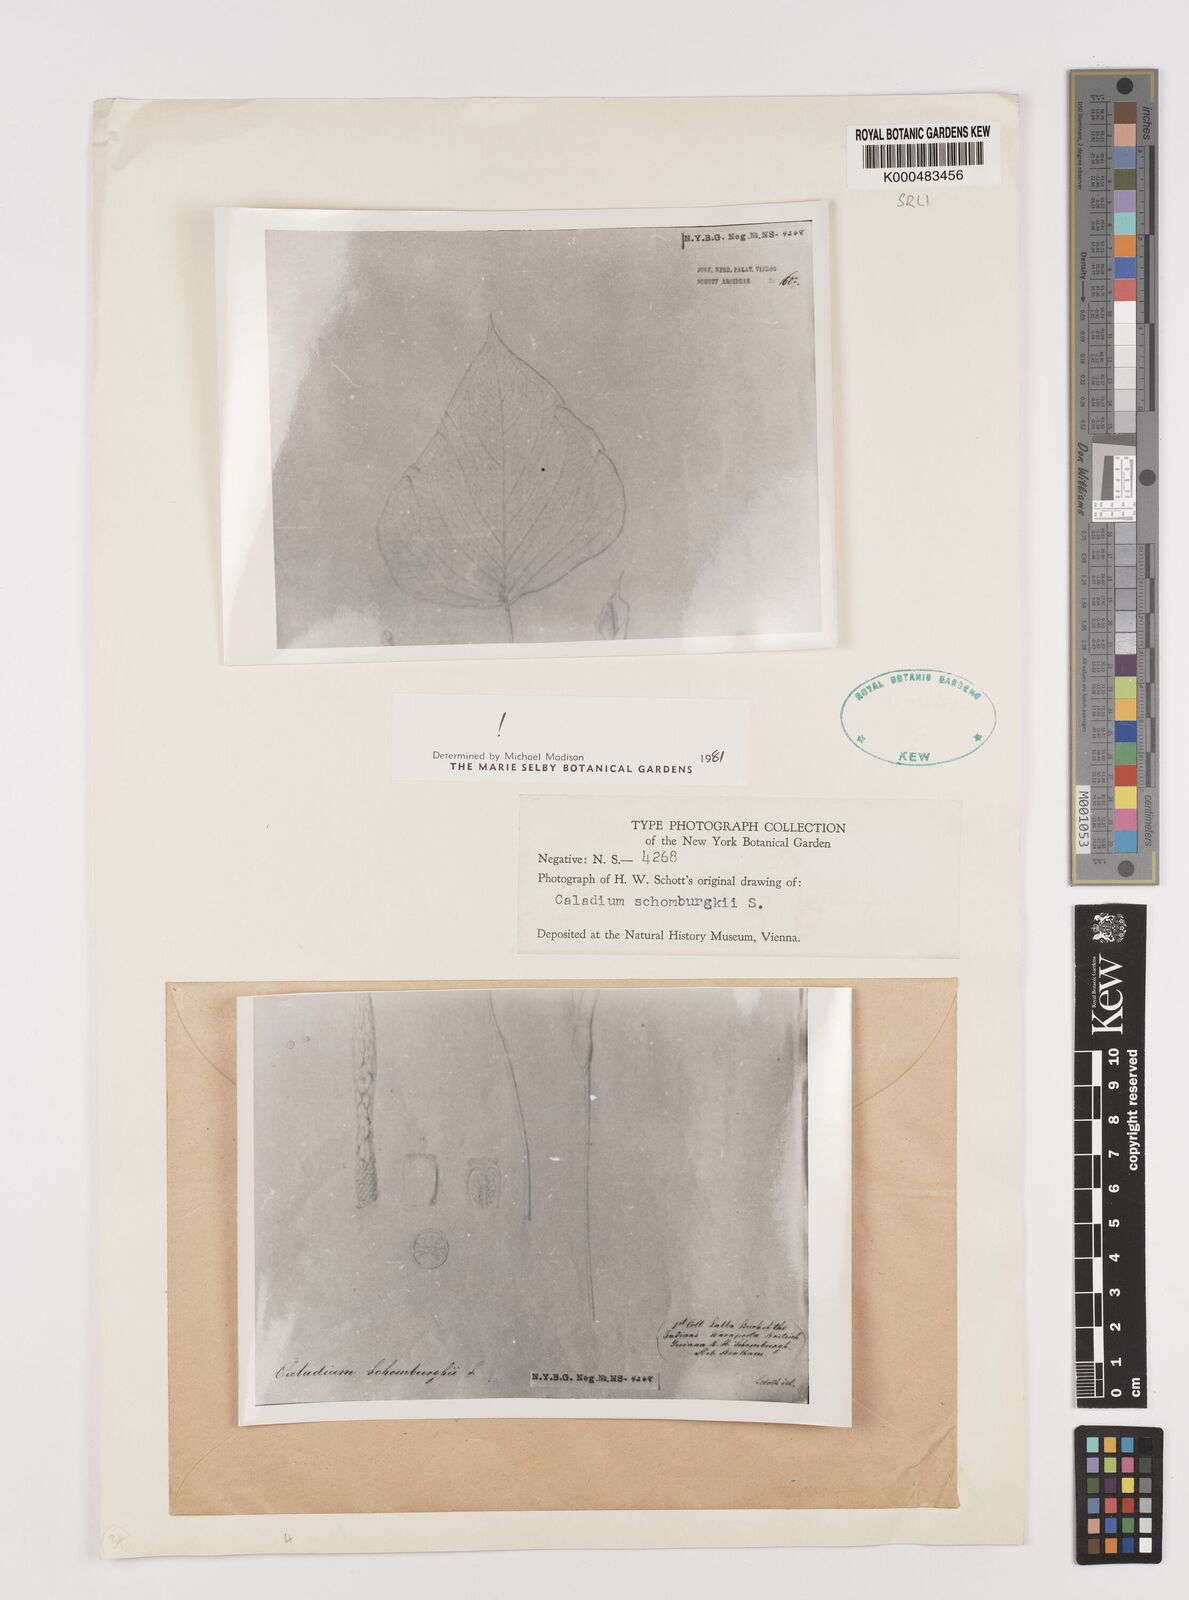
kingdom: Plantae
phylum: Tracheophyta
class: Liliopsida
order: Alismatales
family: Araceae
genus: Caladium
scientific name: Caladium schomburgkii
